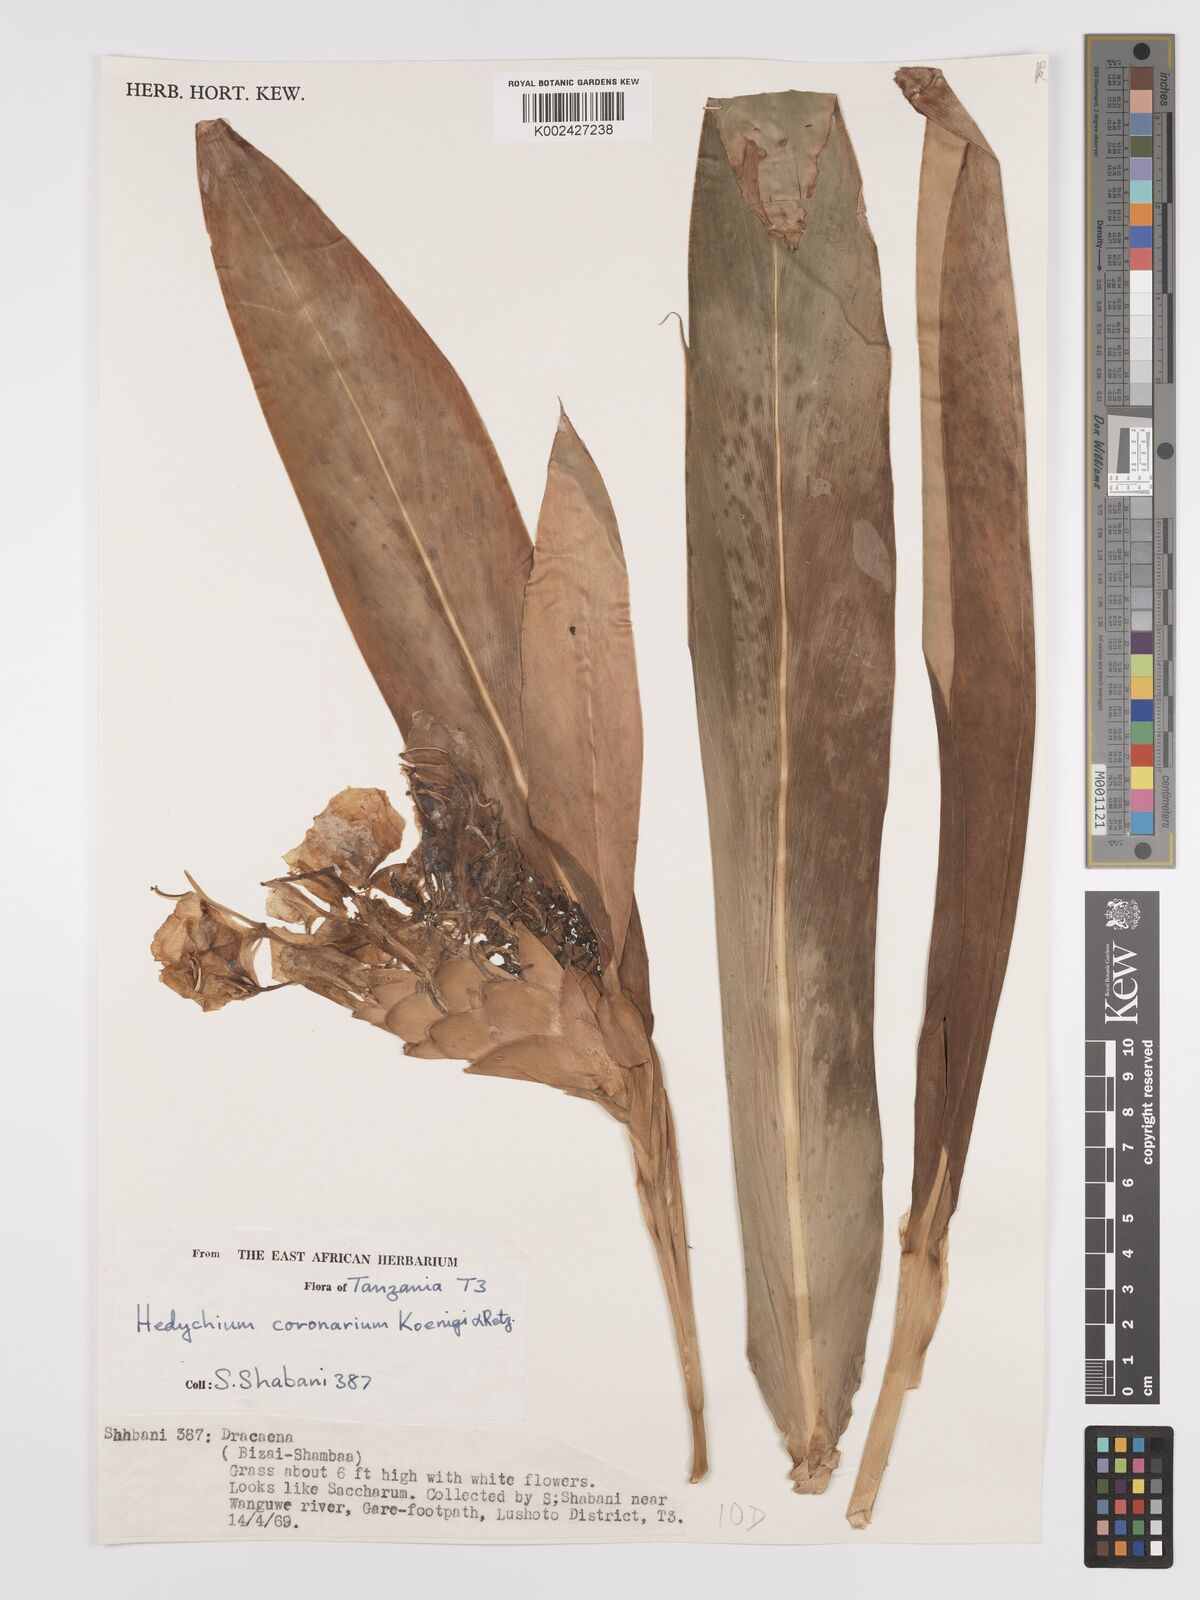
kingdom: Plantae
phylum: Tracheophyta
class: Liliopsida
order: Zingiberales
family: Zingiberaceae
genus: Hedychium
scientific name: Hedychium coronarium
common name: White garland-lily
